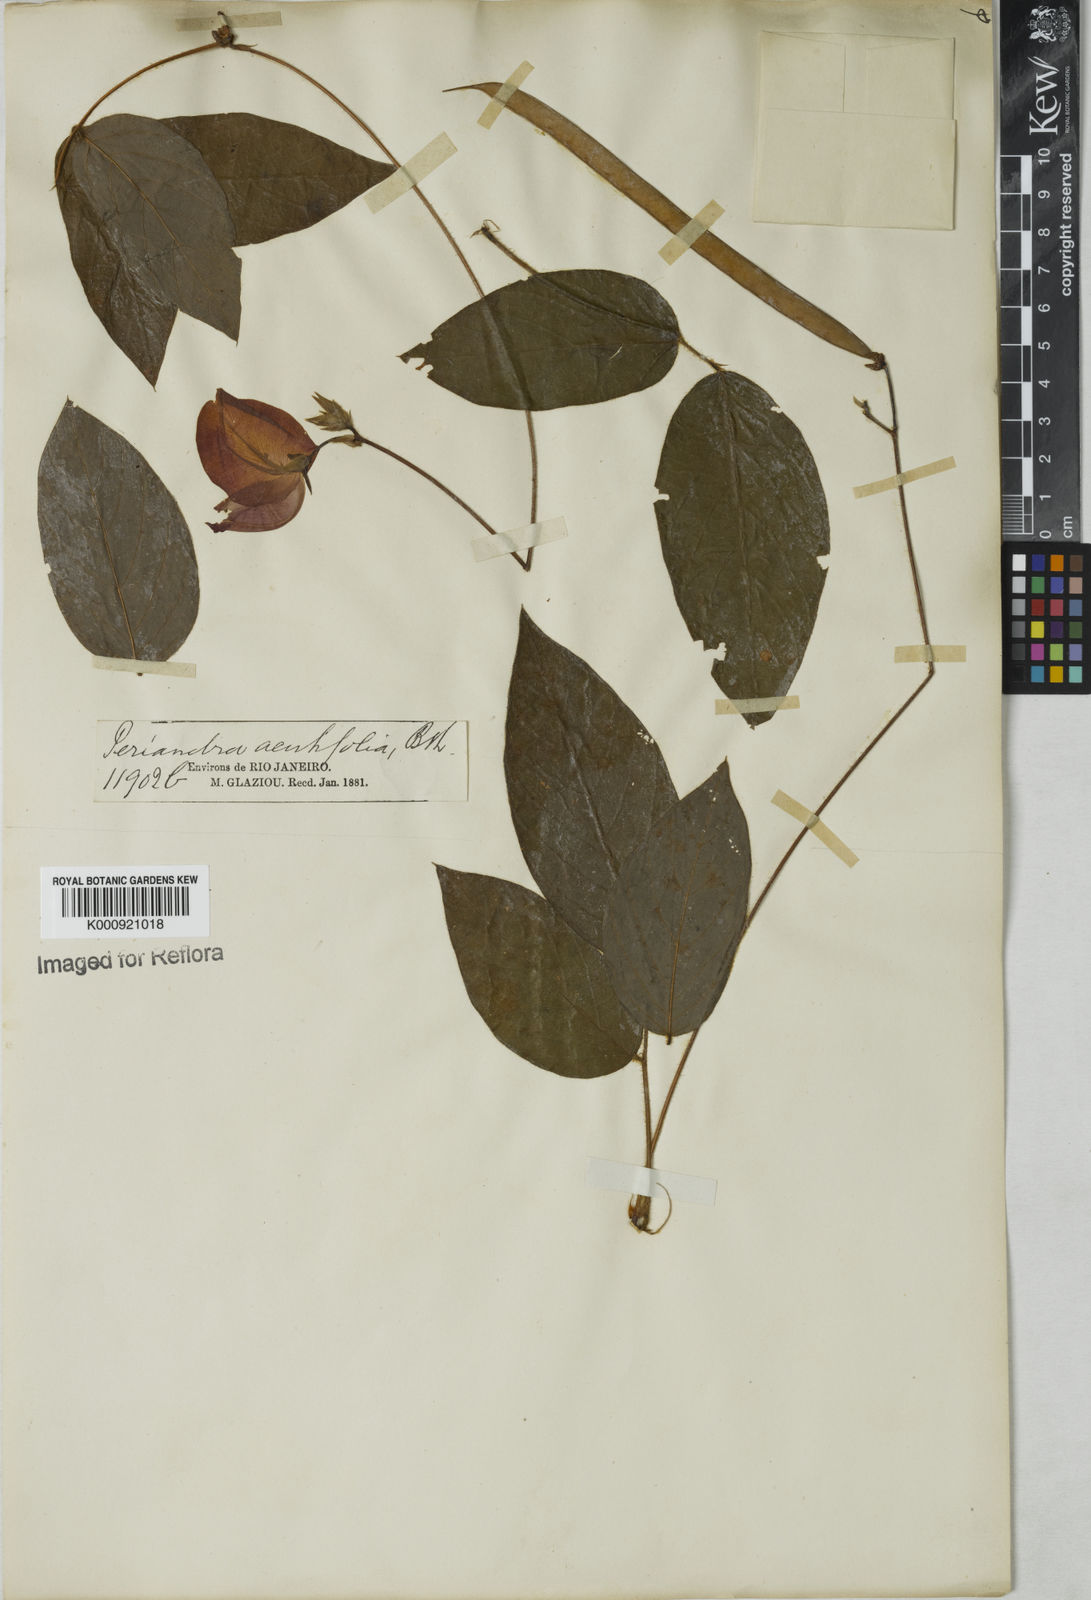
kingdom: Plantae
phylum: Tracheophyta
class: Magnoliopsida
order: Fabales
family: Fabaceae
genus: Periandra
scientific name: Periandra coccinea
